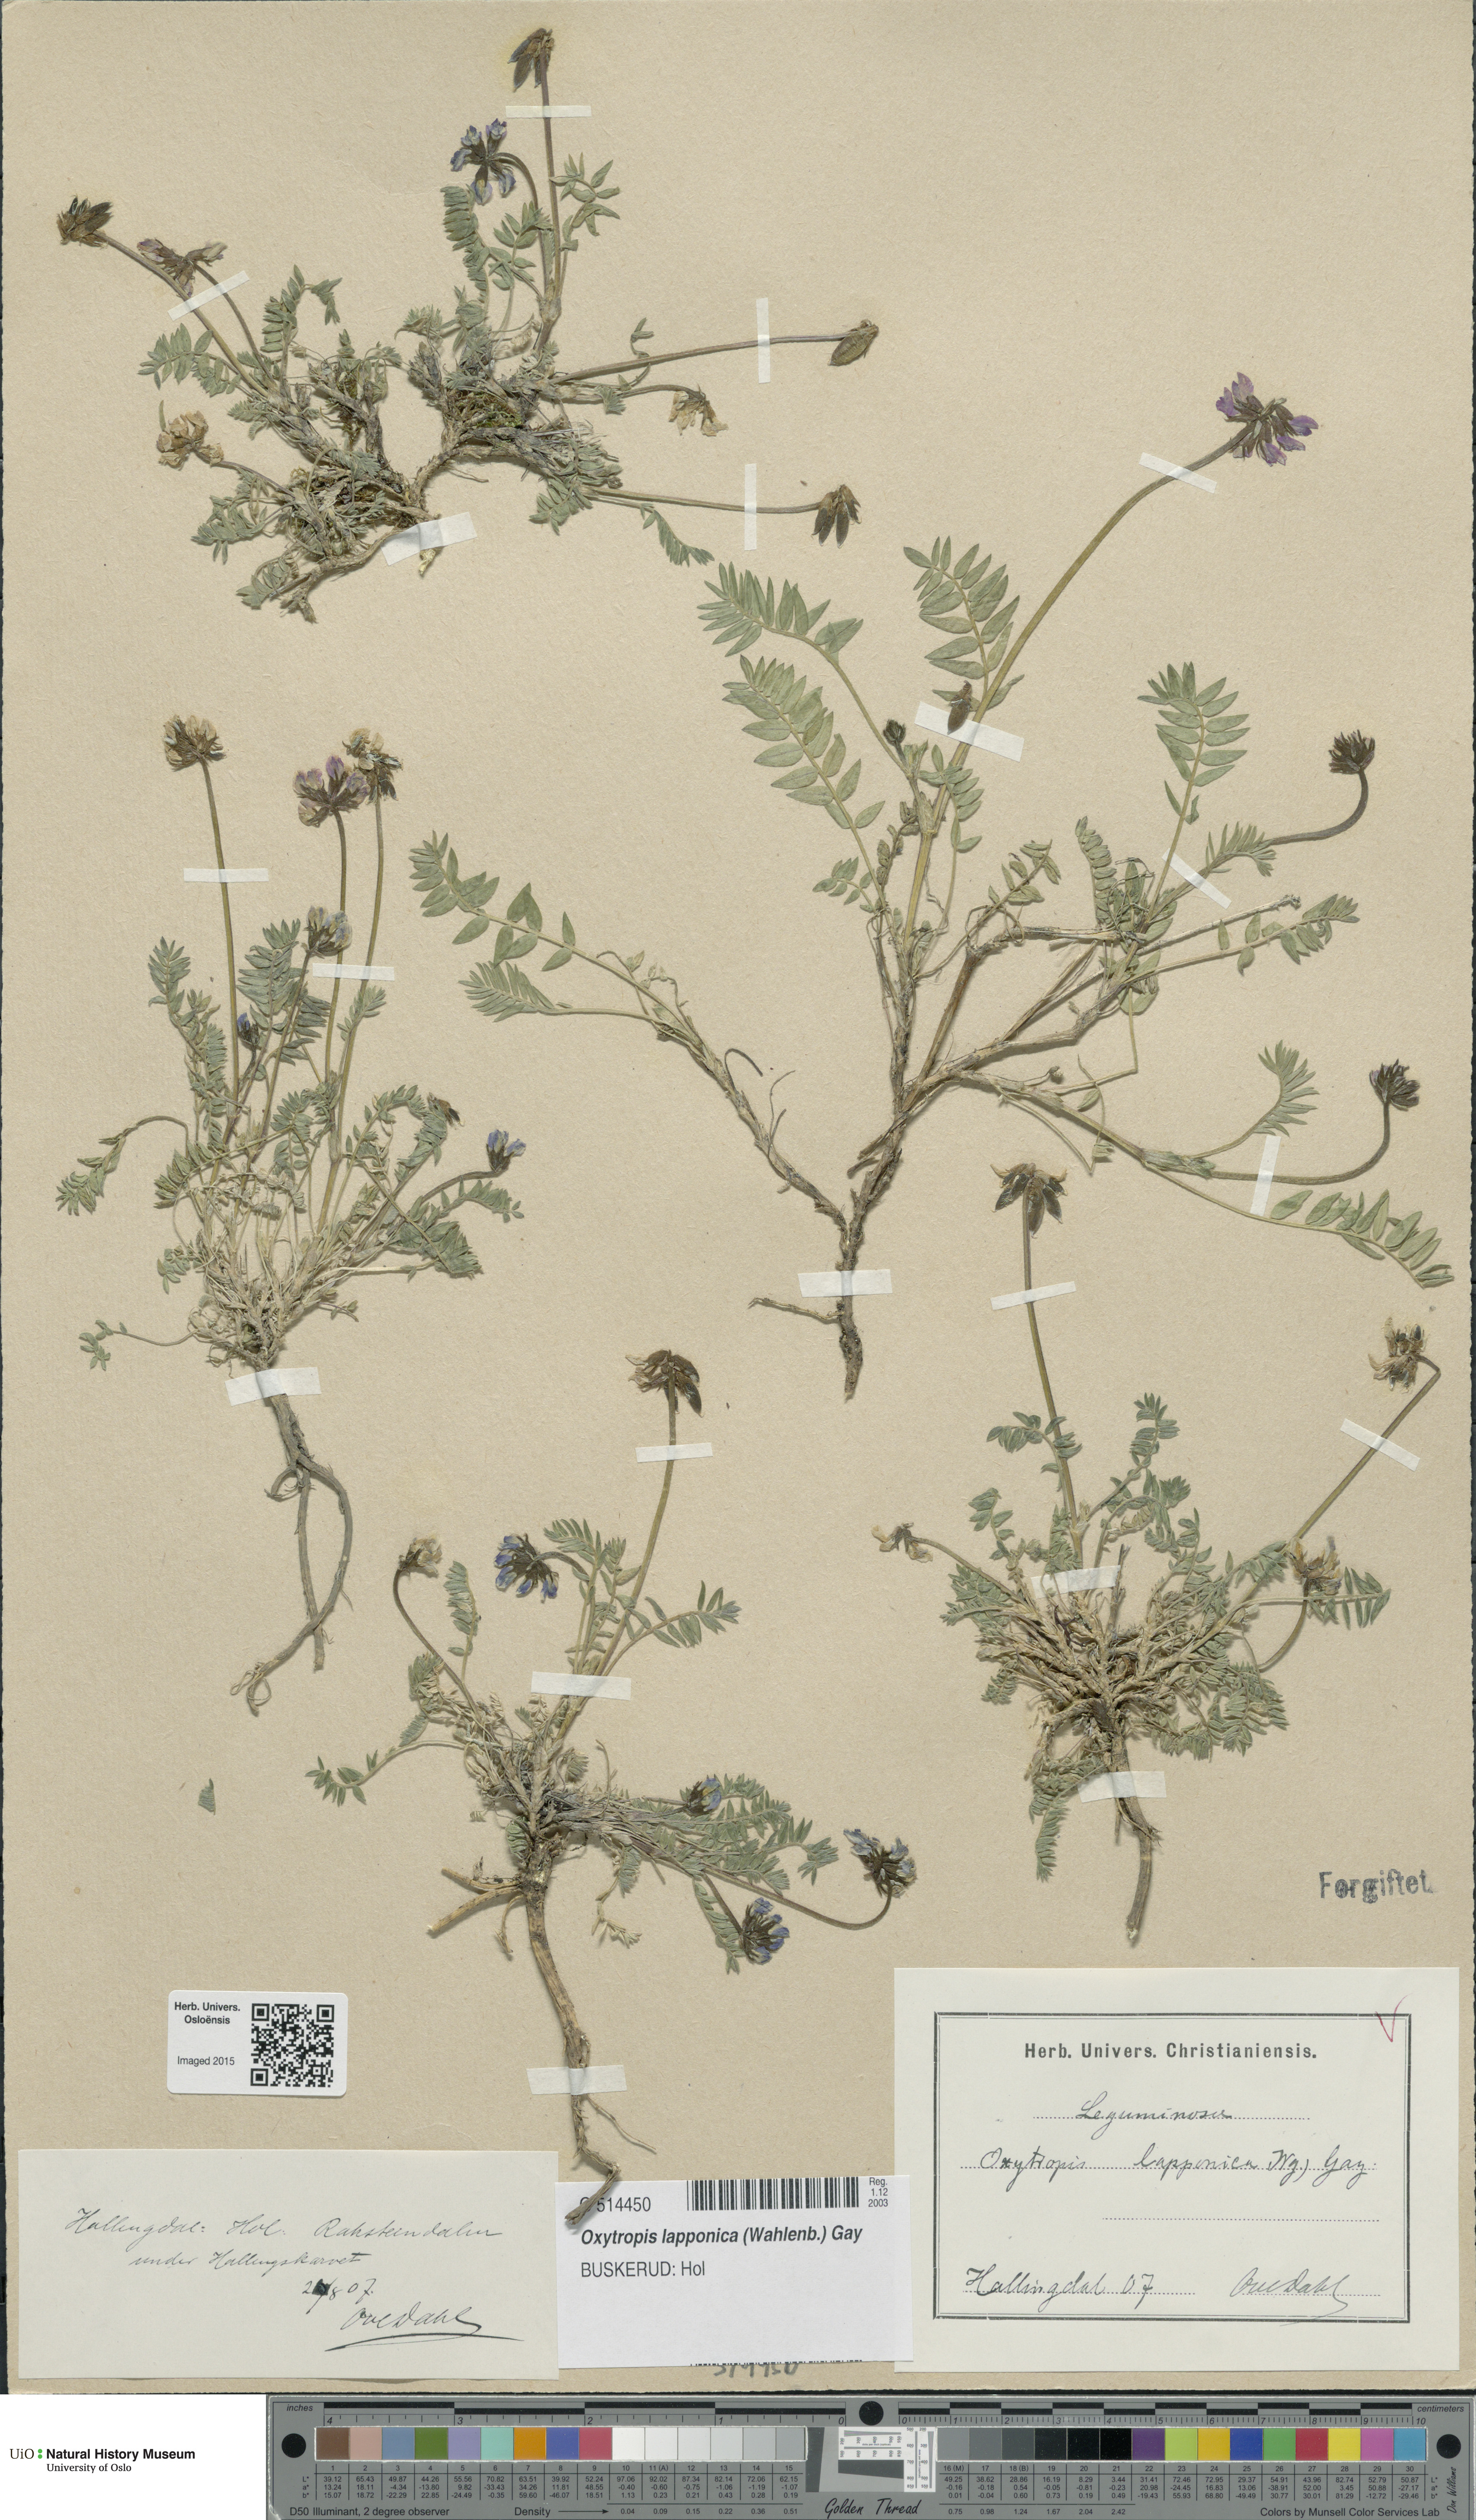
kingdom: Plantae
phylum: Tracheophyta
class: Magnoliopsida
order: Fabales
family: Fabaceae
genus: Oxytropis
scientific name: Oxytropis lapponica
